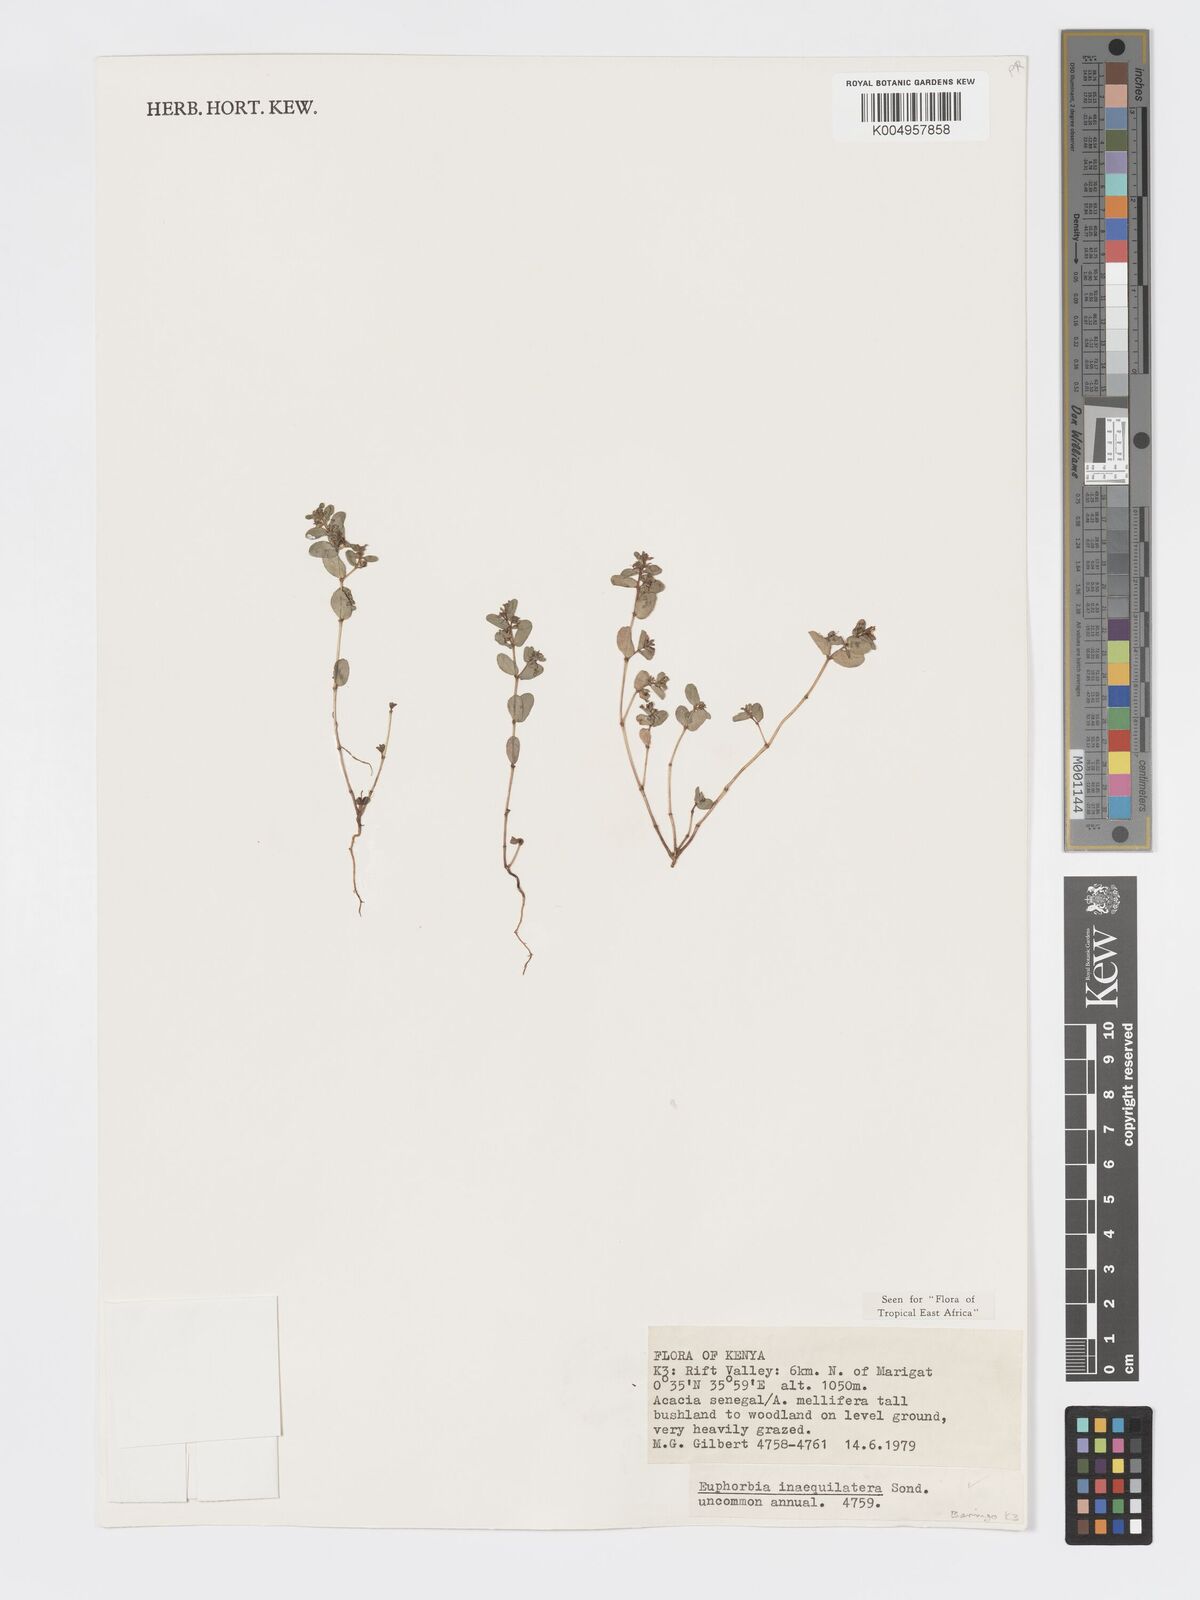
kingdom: Plantae
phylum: Tracheophyta
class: Magnoliopsida
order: Malpighiales
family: Euphorbiaceae
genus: Euphorbia
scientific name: Euphorbia inaequilatera
